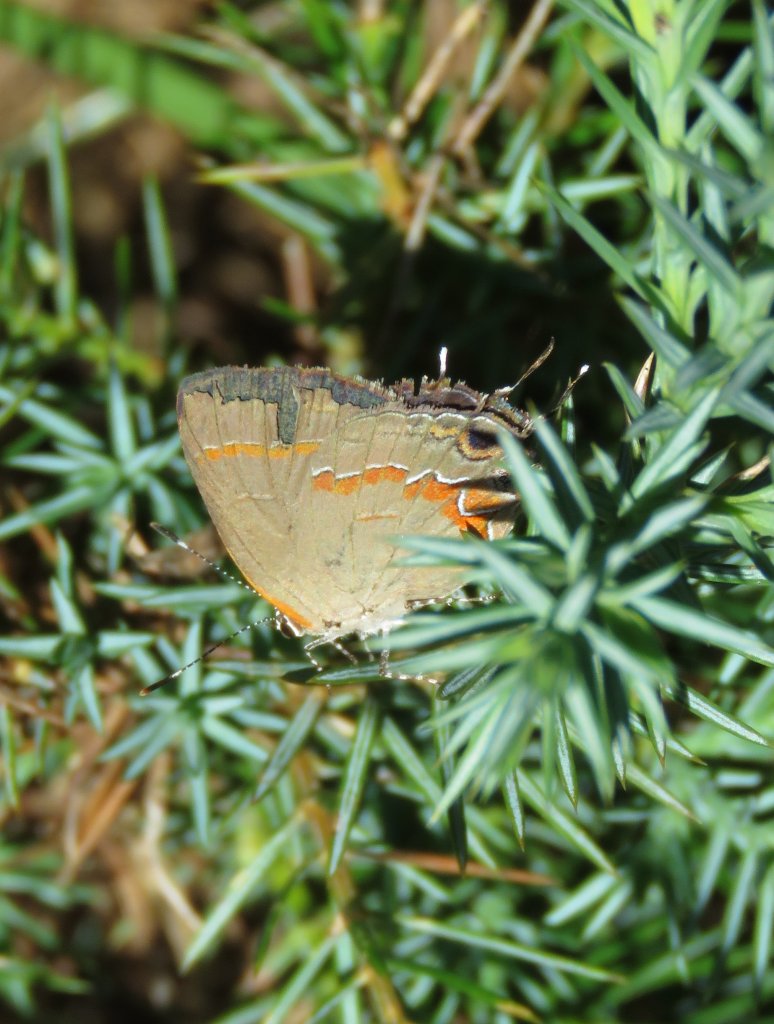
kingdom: Animalia
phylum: Arthropoda
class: Insecta
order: Lepidoptera
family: Lycaenidae
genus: Calycopis
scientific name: Calycopis cecrops
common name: Red-banded Hairstreak
